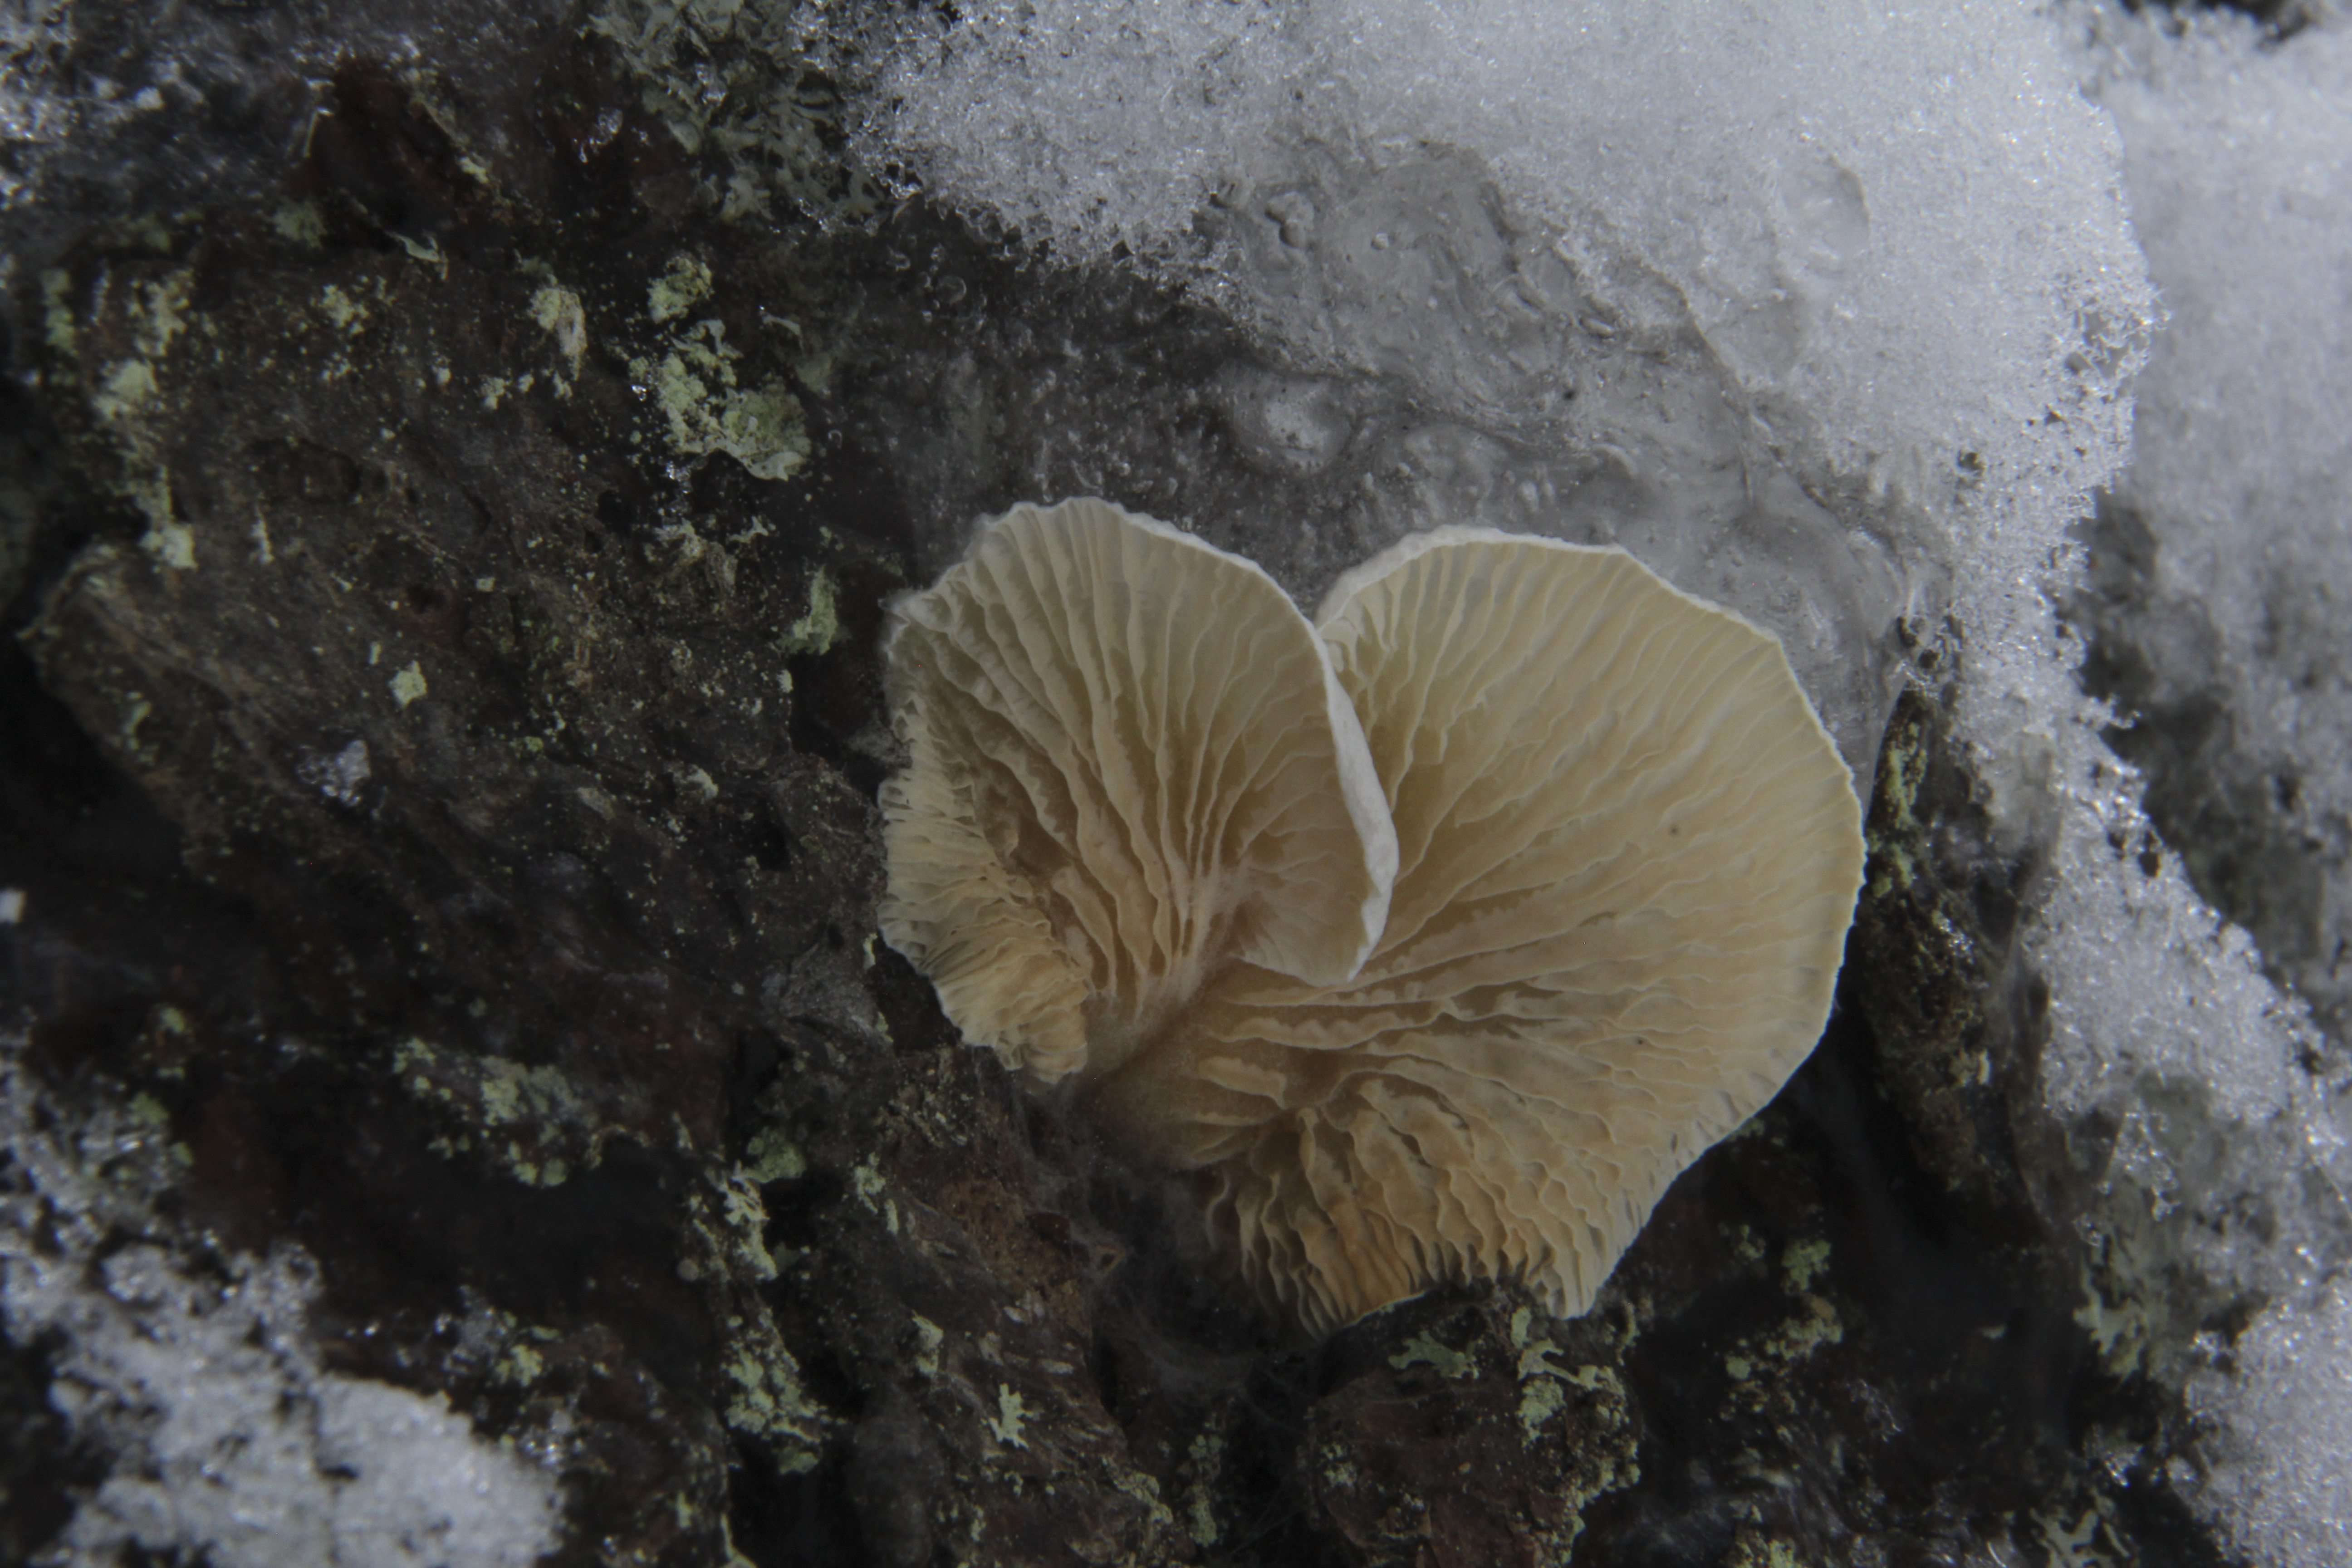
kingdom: Fungi
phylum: Basidiomycota
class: Agaricomycetes
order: Agaricales
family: Crepidotaceae
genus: Crepidotus
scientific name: Crepidotus
